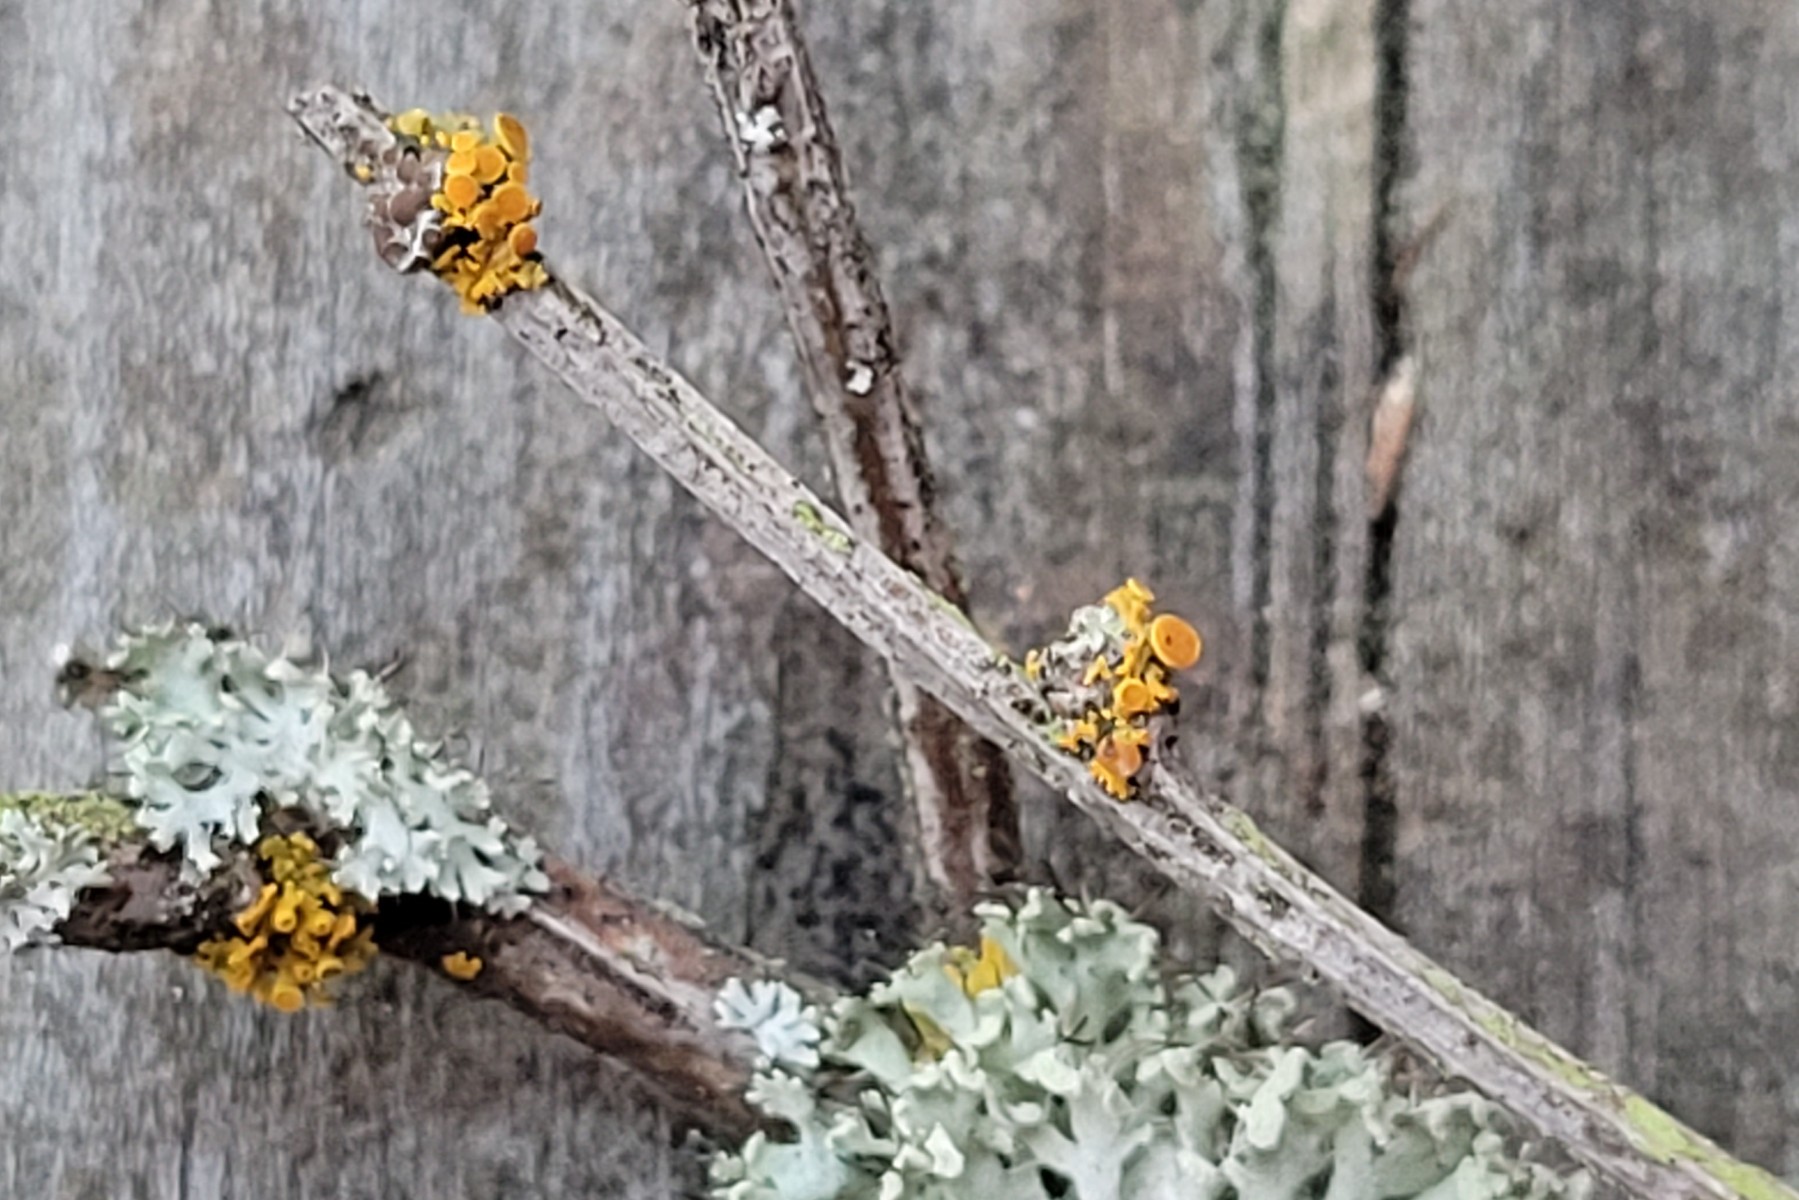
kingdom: Fungi
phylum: Ascomycota
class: Lecanoromycetes
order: Teloschistales
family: Teloschistaceae
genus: Polycauliona
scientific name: Polycauliona polycarpa
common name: mangefrugtet orangelav
